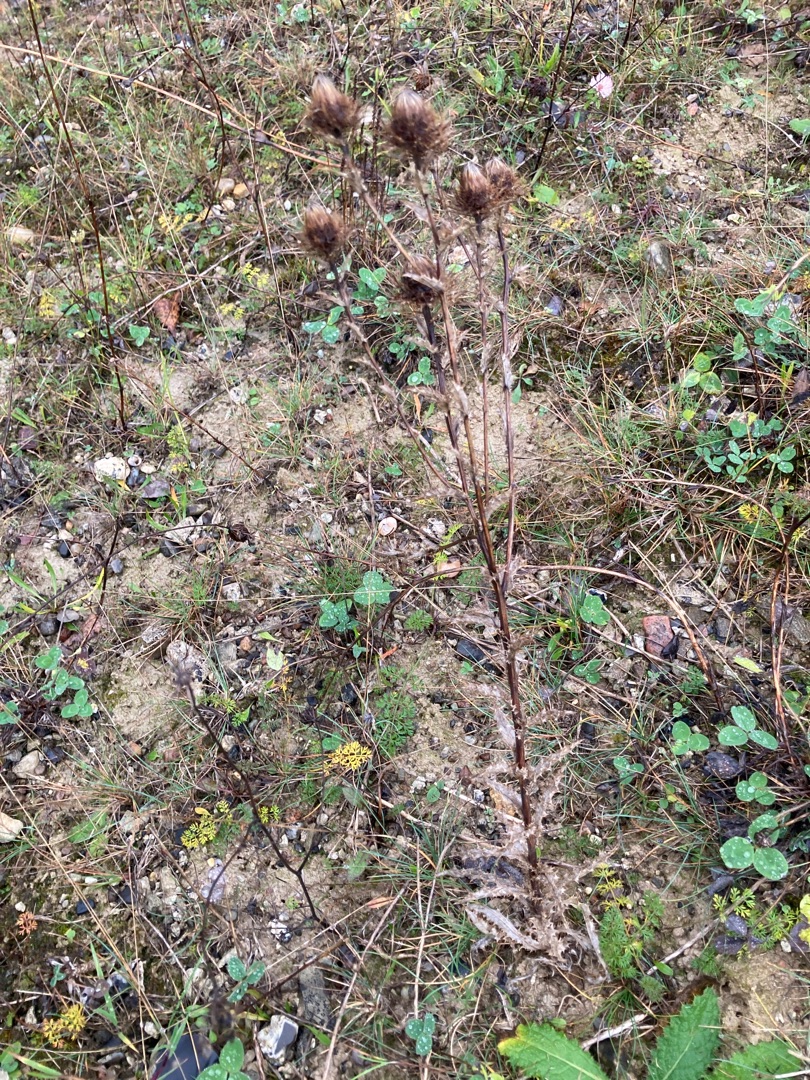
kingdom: Plantae
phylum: Tracheophyta
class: Magnoliopsida
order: Asterales
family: Asteraceae
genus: Carlina
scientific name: Carlina vulgaris
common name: Bakketidsel
